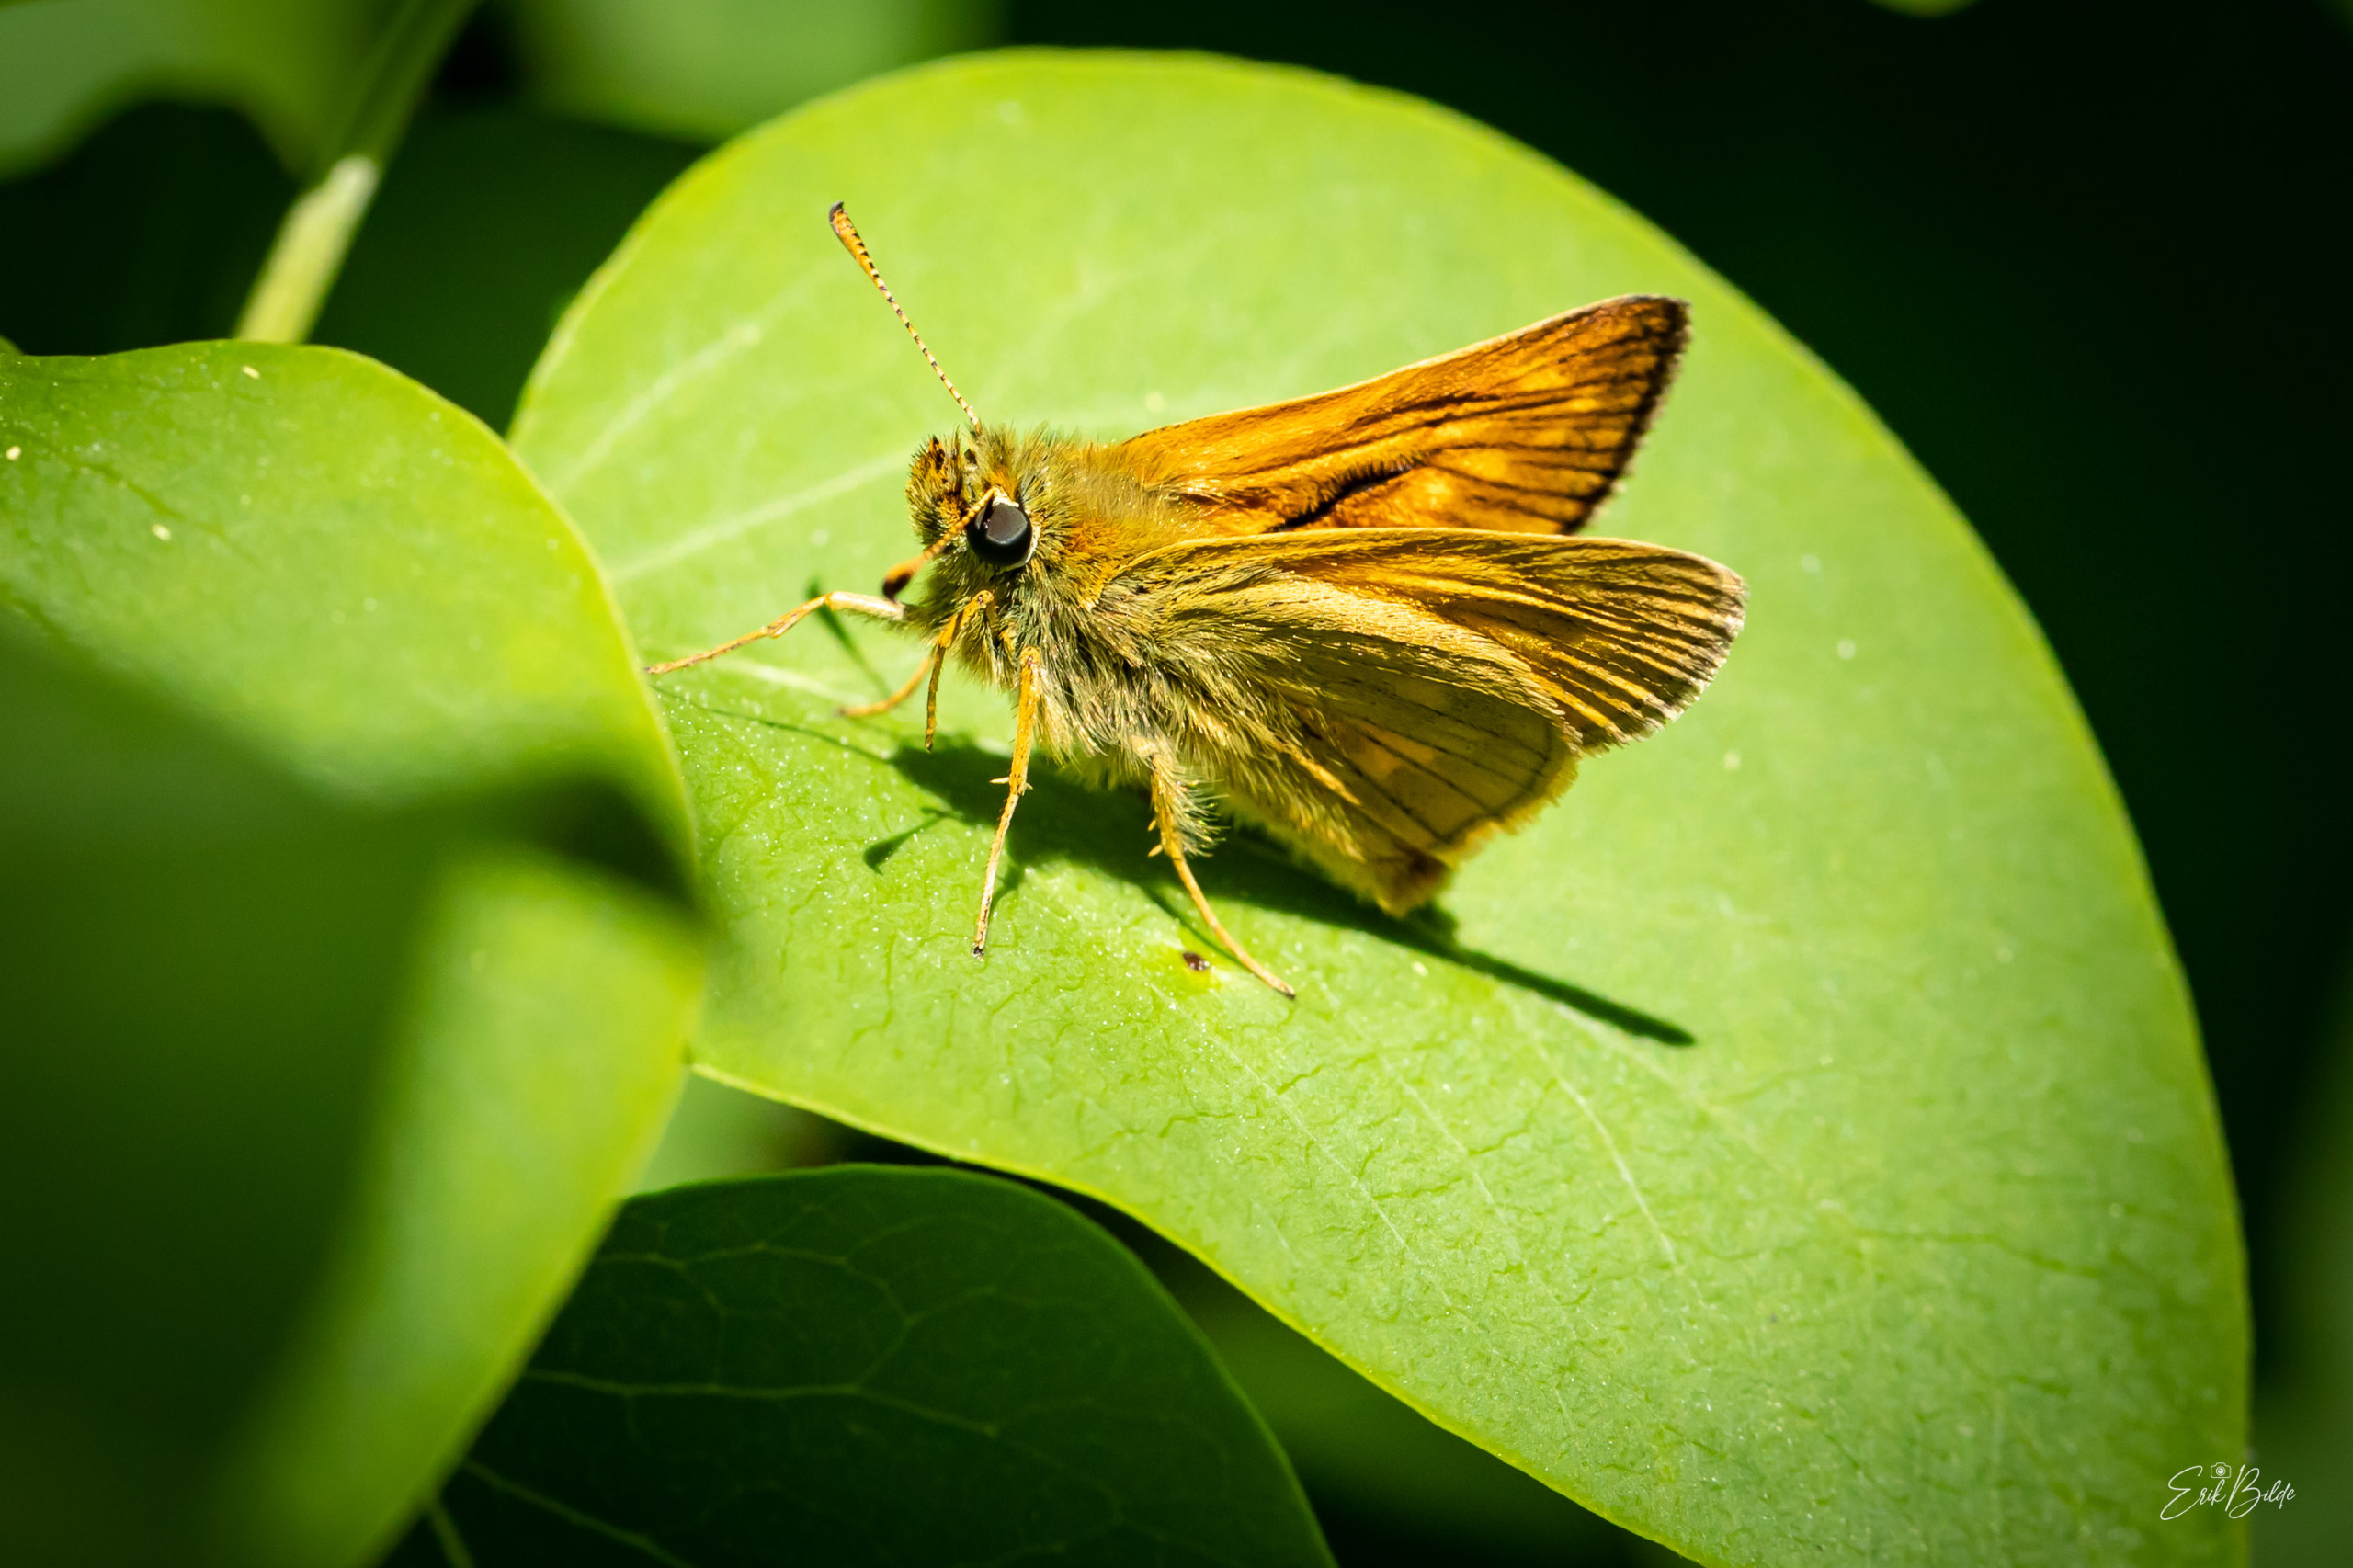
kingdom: Animalia
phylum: Arthropoda
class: Insecta
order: Lepidoptera
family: Hesperiidae
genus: Ochlodes
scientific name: Ochlodes venata
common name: Stor bredpande
